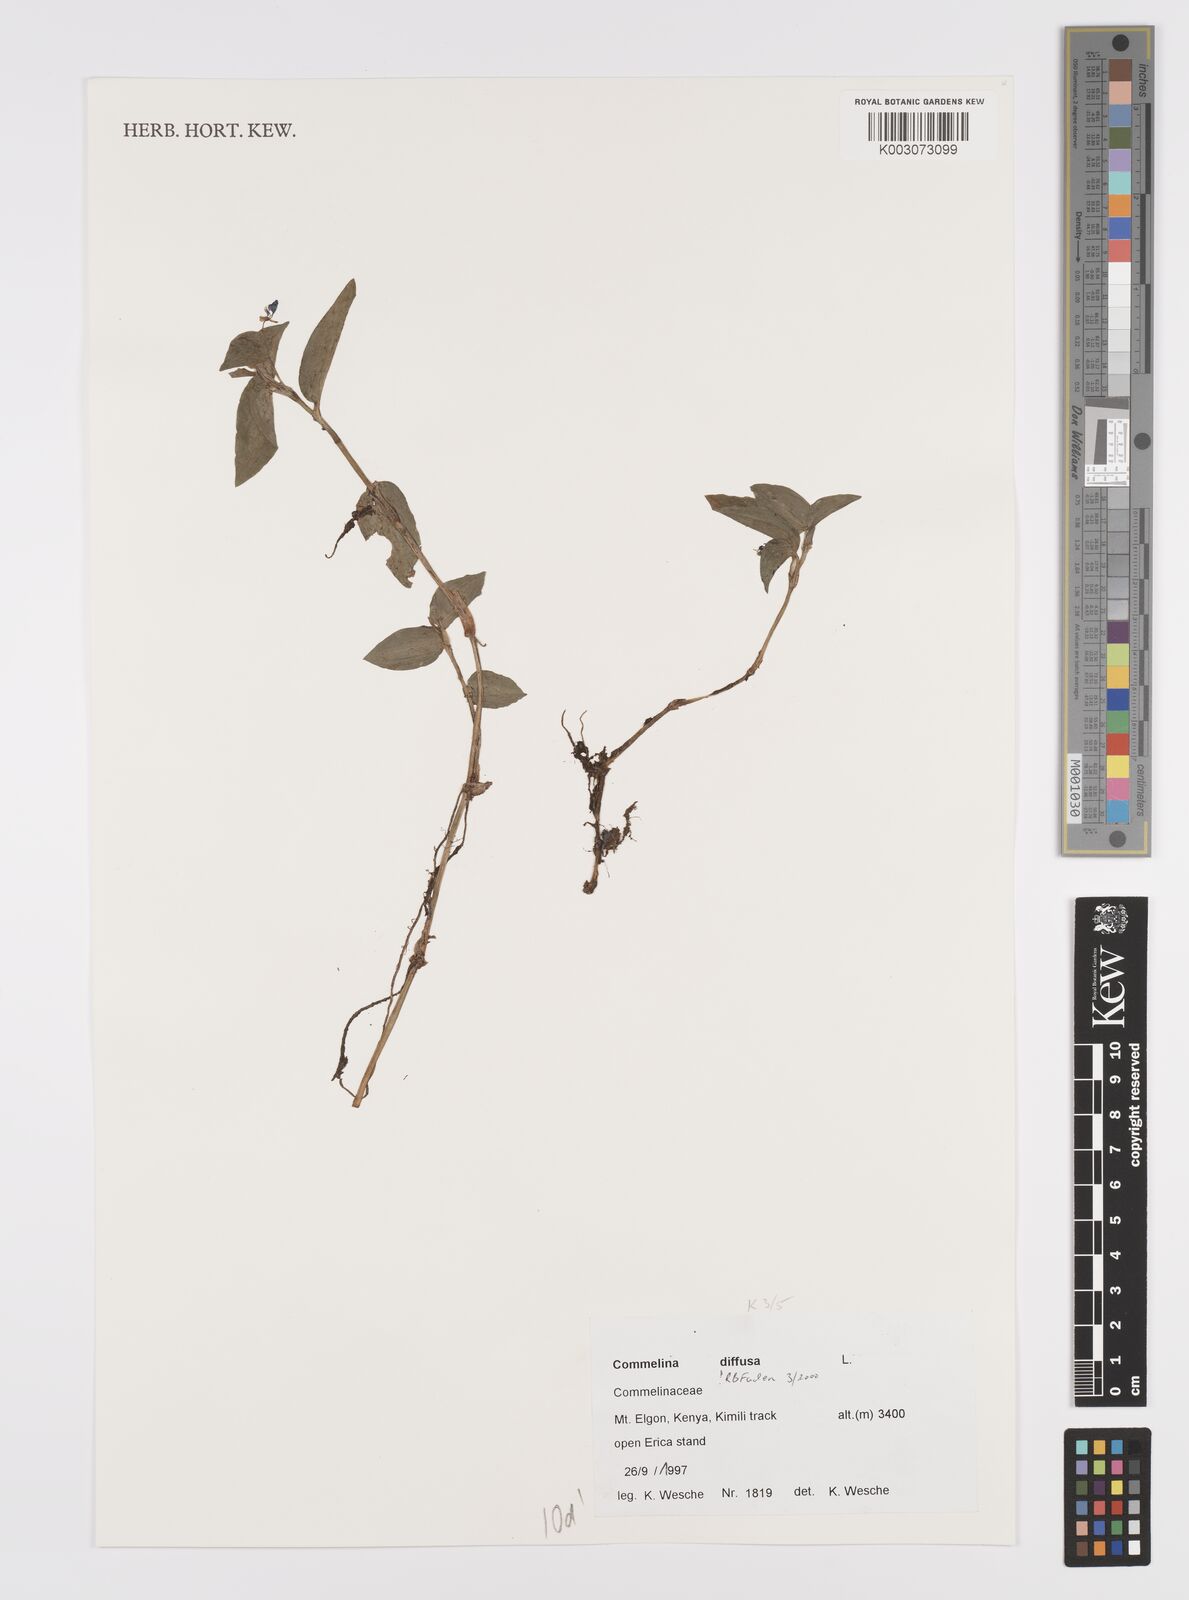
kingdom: Plantae
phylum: Tracheophyta
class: Liliopsida
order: Commelinales
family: Commelinaceae
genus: Commelina
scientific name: Commelina diffusa
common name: Climbing dayflower
